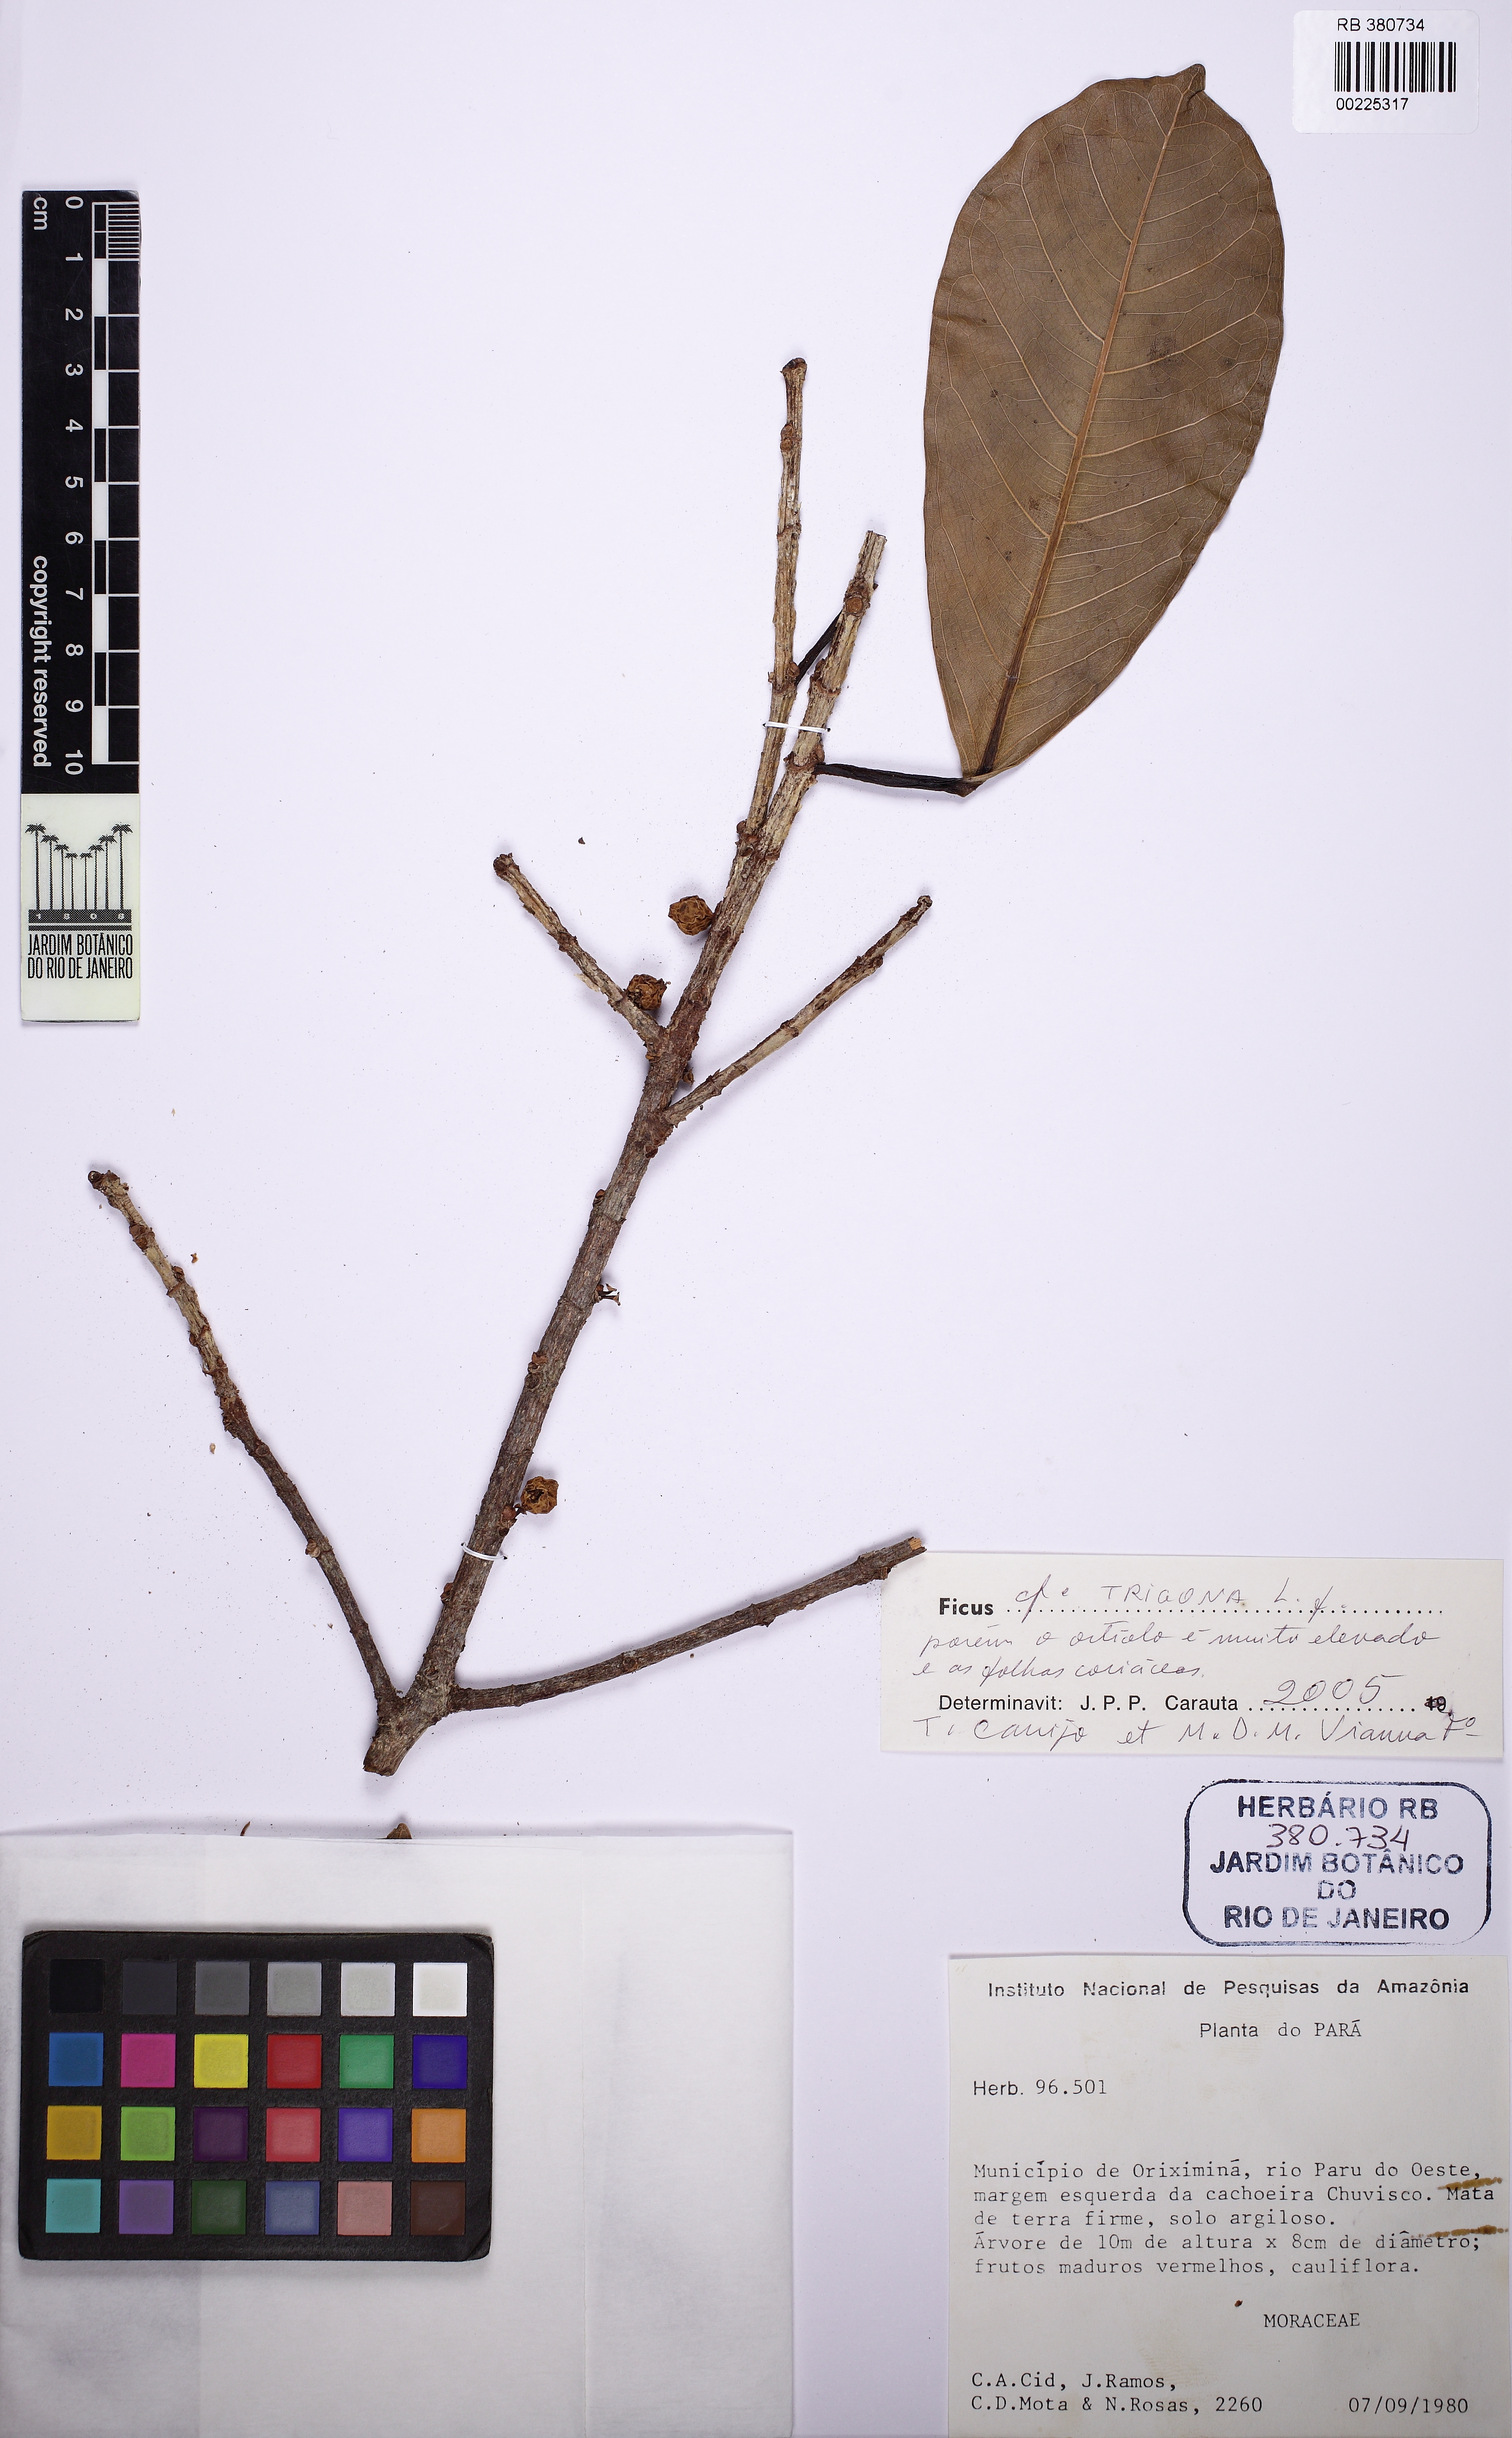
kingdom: Plantae
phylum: Tracheophyta
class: Magnoliopsida
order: Rosales
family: Moraceae
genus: Ficus
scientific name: Ficus americana
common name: Jamaican cherry fig
